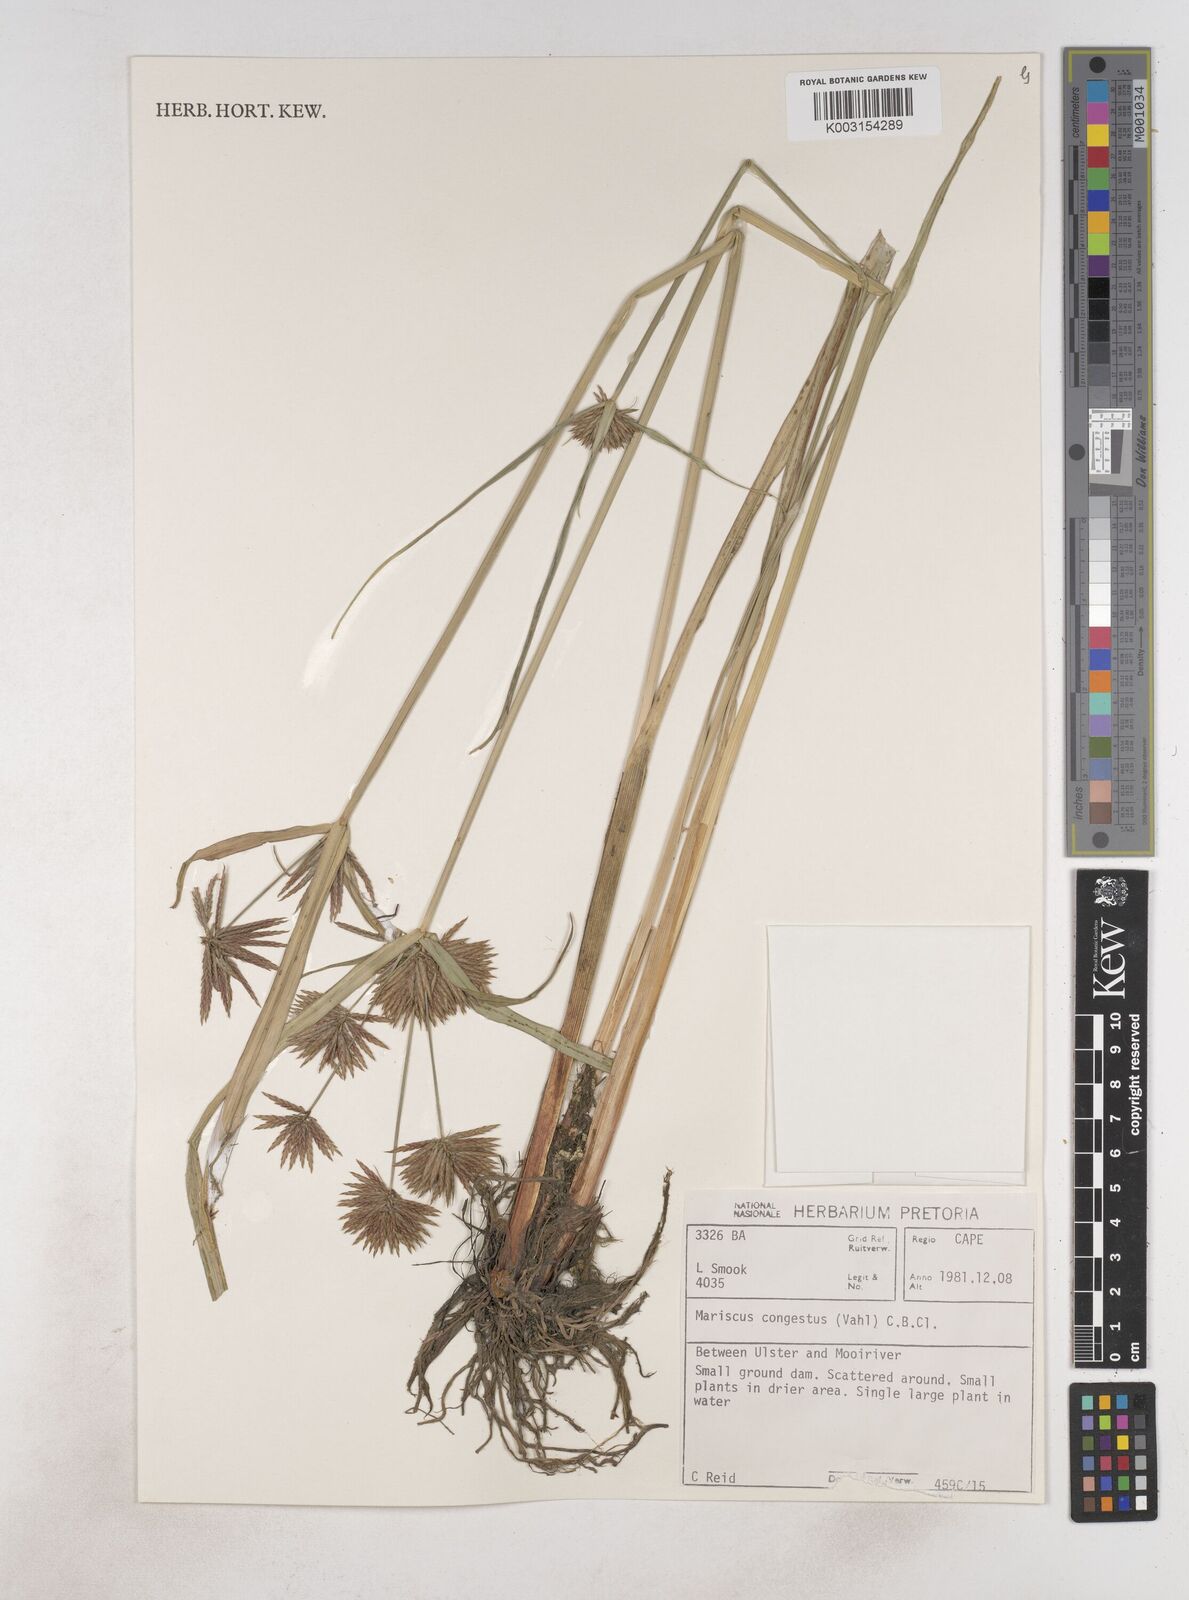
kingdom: Plantae
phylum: Tracheophyta
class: Liliopsida
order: Poales
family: Cyperaceae
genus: Cyperus
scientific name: Cyperus congestus
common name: Dense flat sedge
